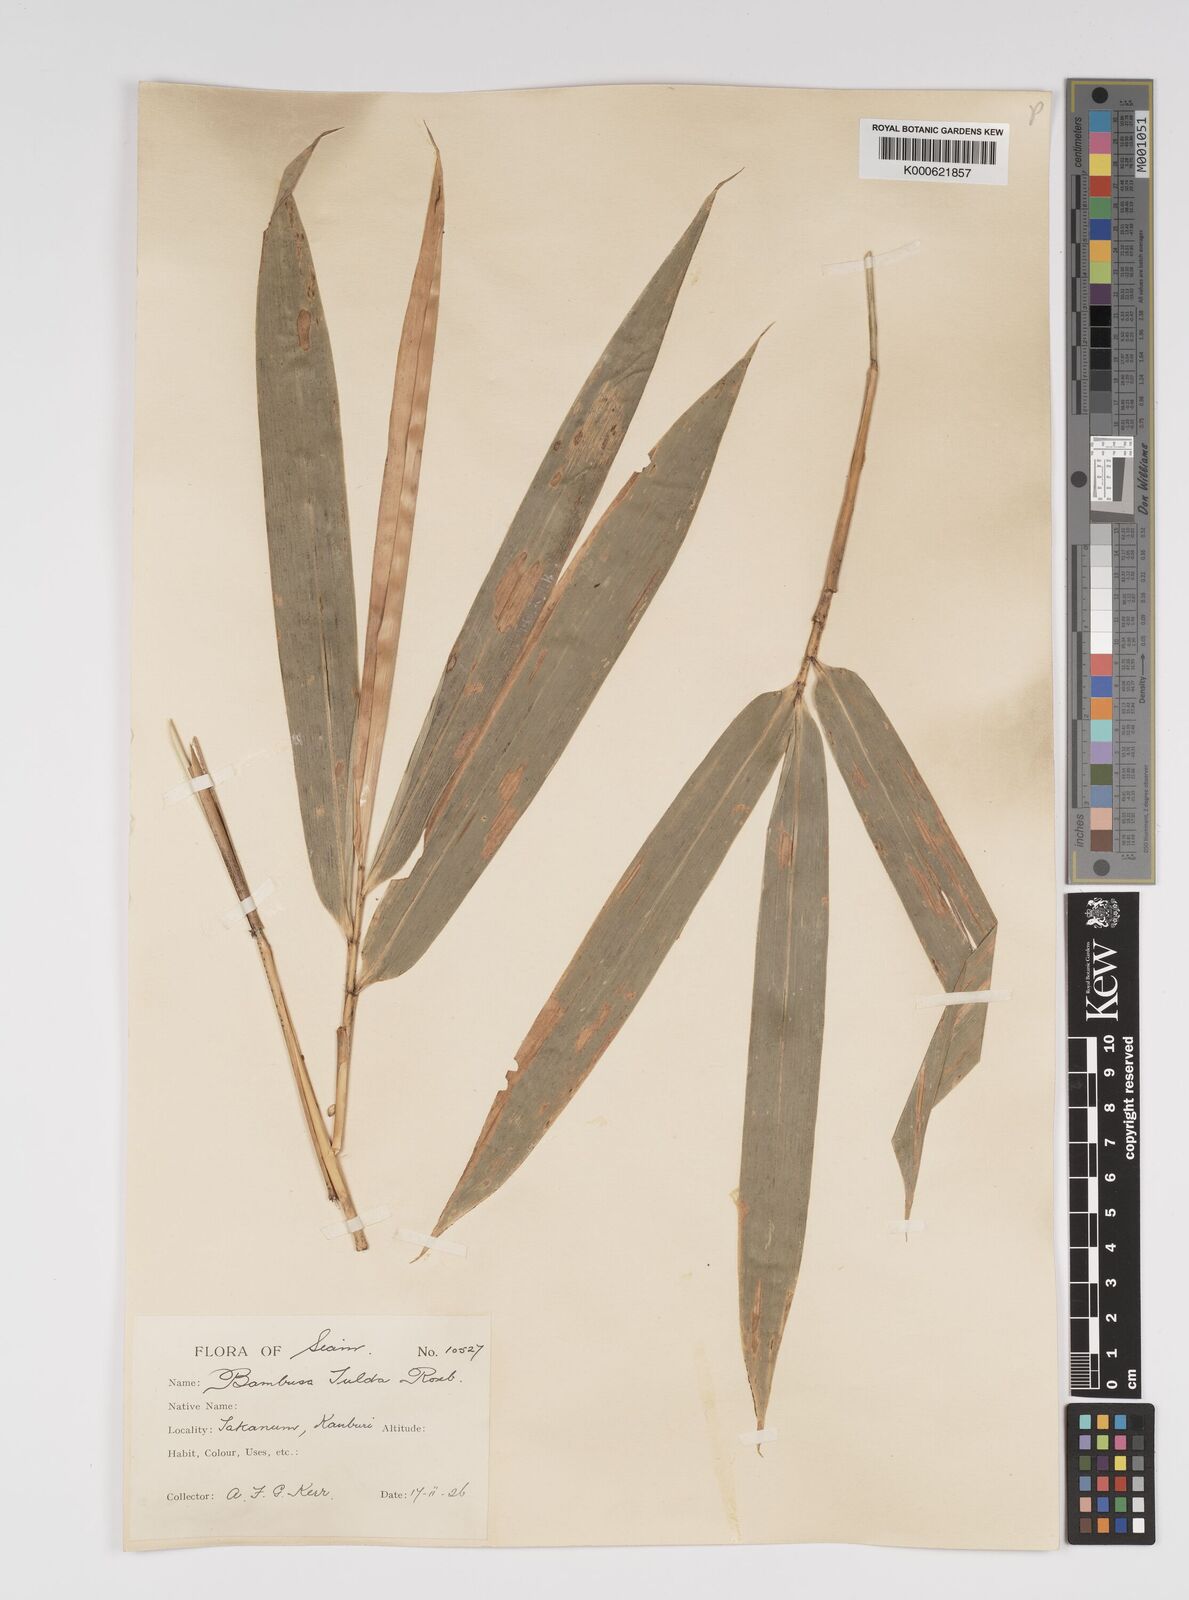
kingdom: Plantae
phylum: Tracheophyta
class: Liliopsida
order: Poales
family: Poaceae
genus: Bambusa
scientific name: Bambusa tulda
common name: Bengal bamboo
